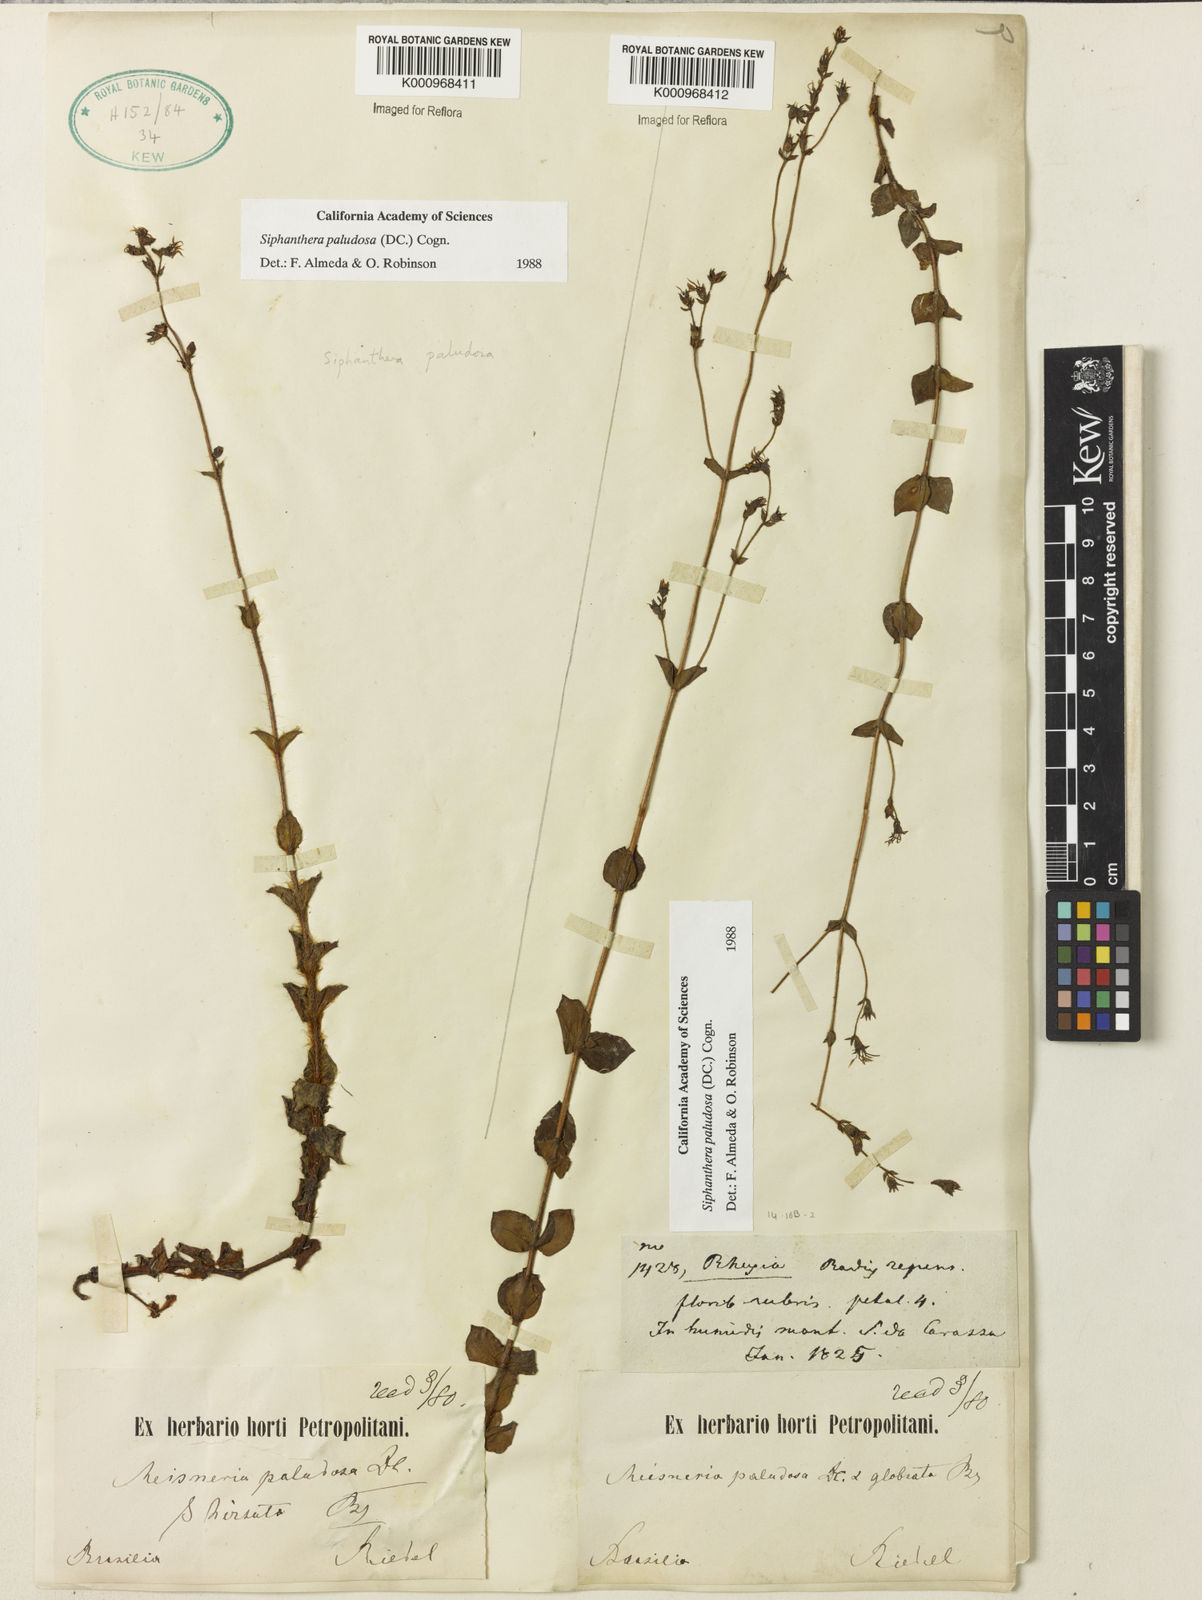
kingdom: Plantae
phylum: Tracheophyta
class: Magnoliopsida
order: Myrtales
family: Melastomataceae
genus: Siphanthera
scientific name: Siphanthera paludosa
